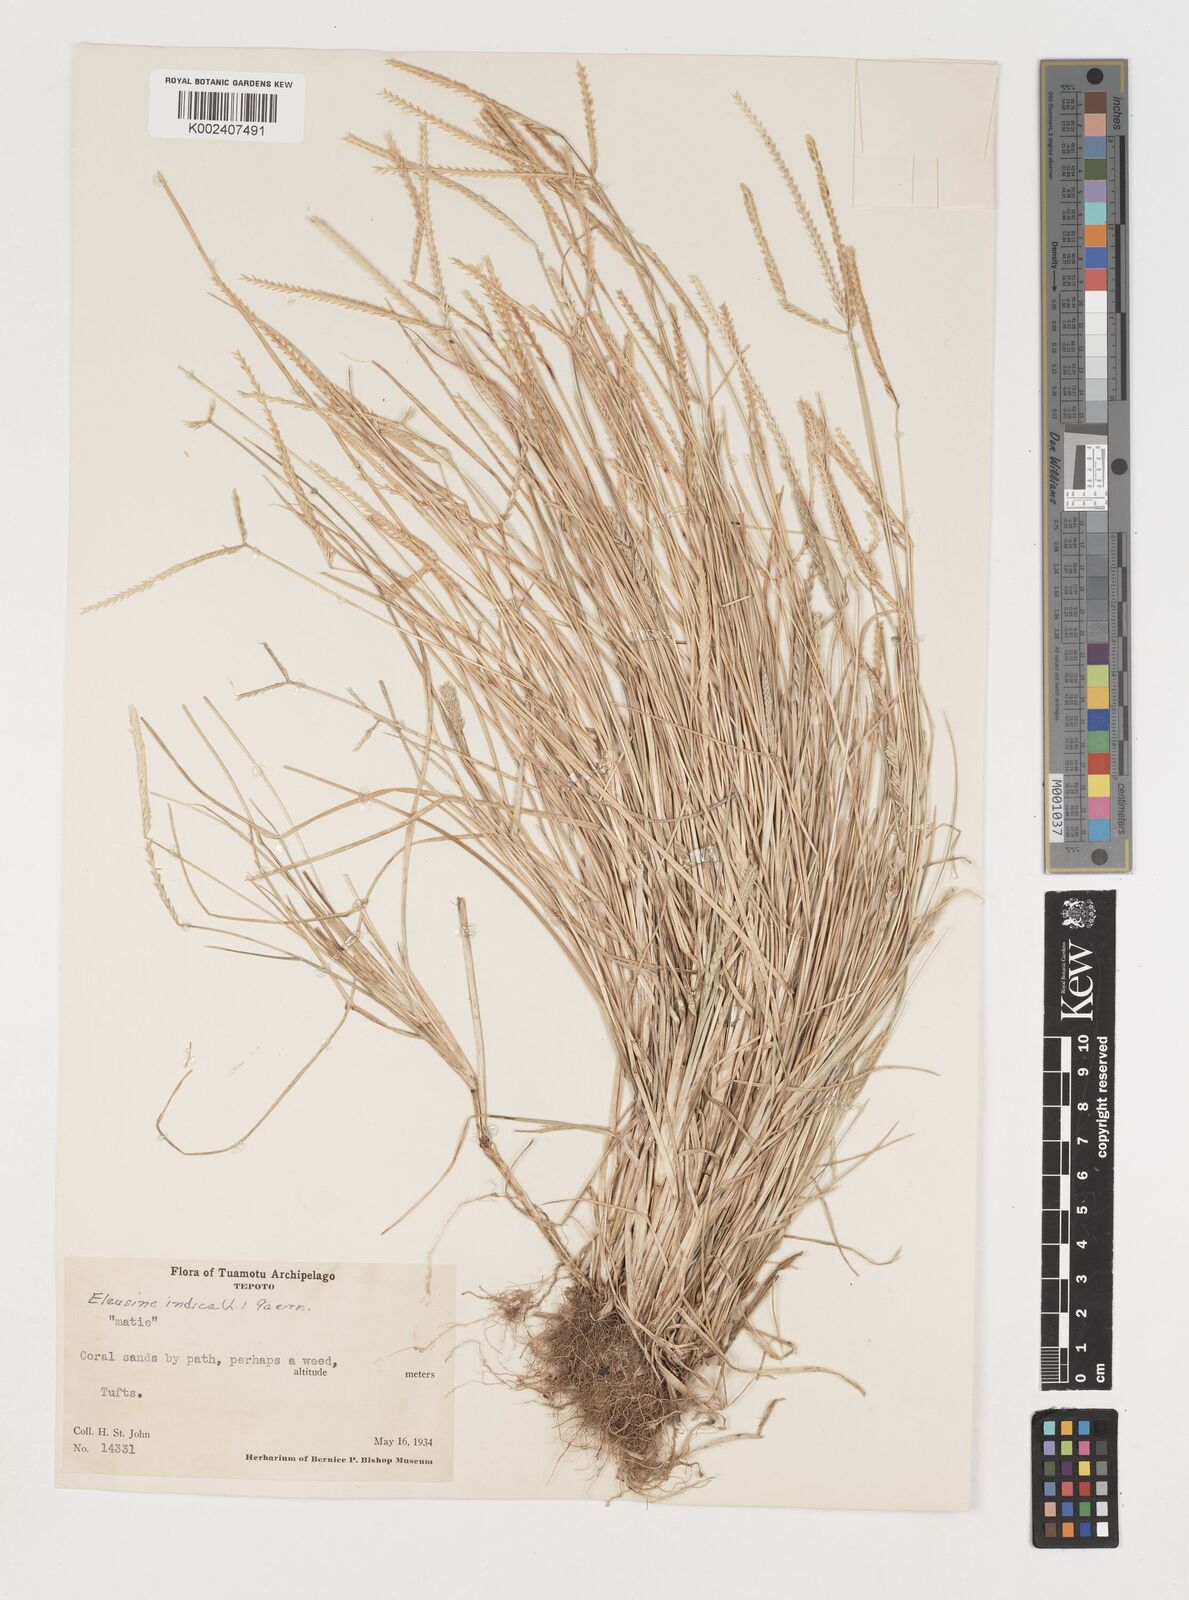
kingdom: Plantae
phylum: Tracheophyta
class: Liliopsida
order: Poales
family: Poaceae
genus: Eleusine
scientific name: Eleusine indica
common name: Yard-grass
